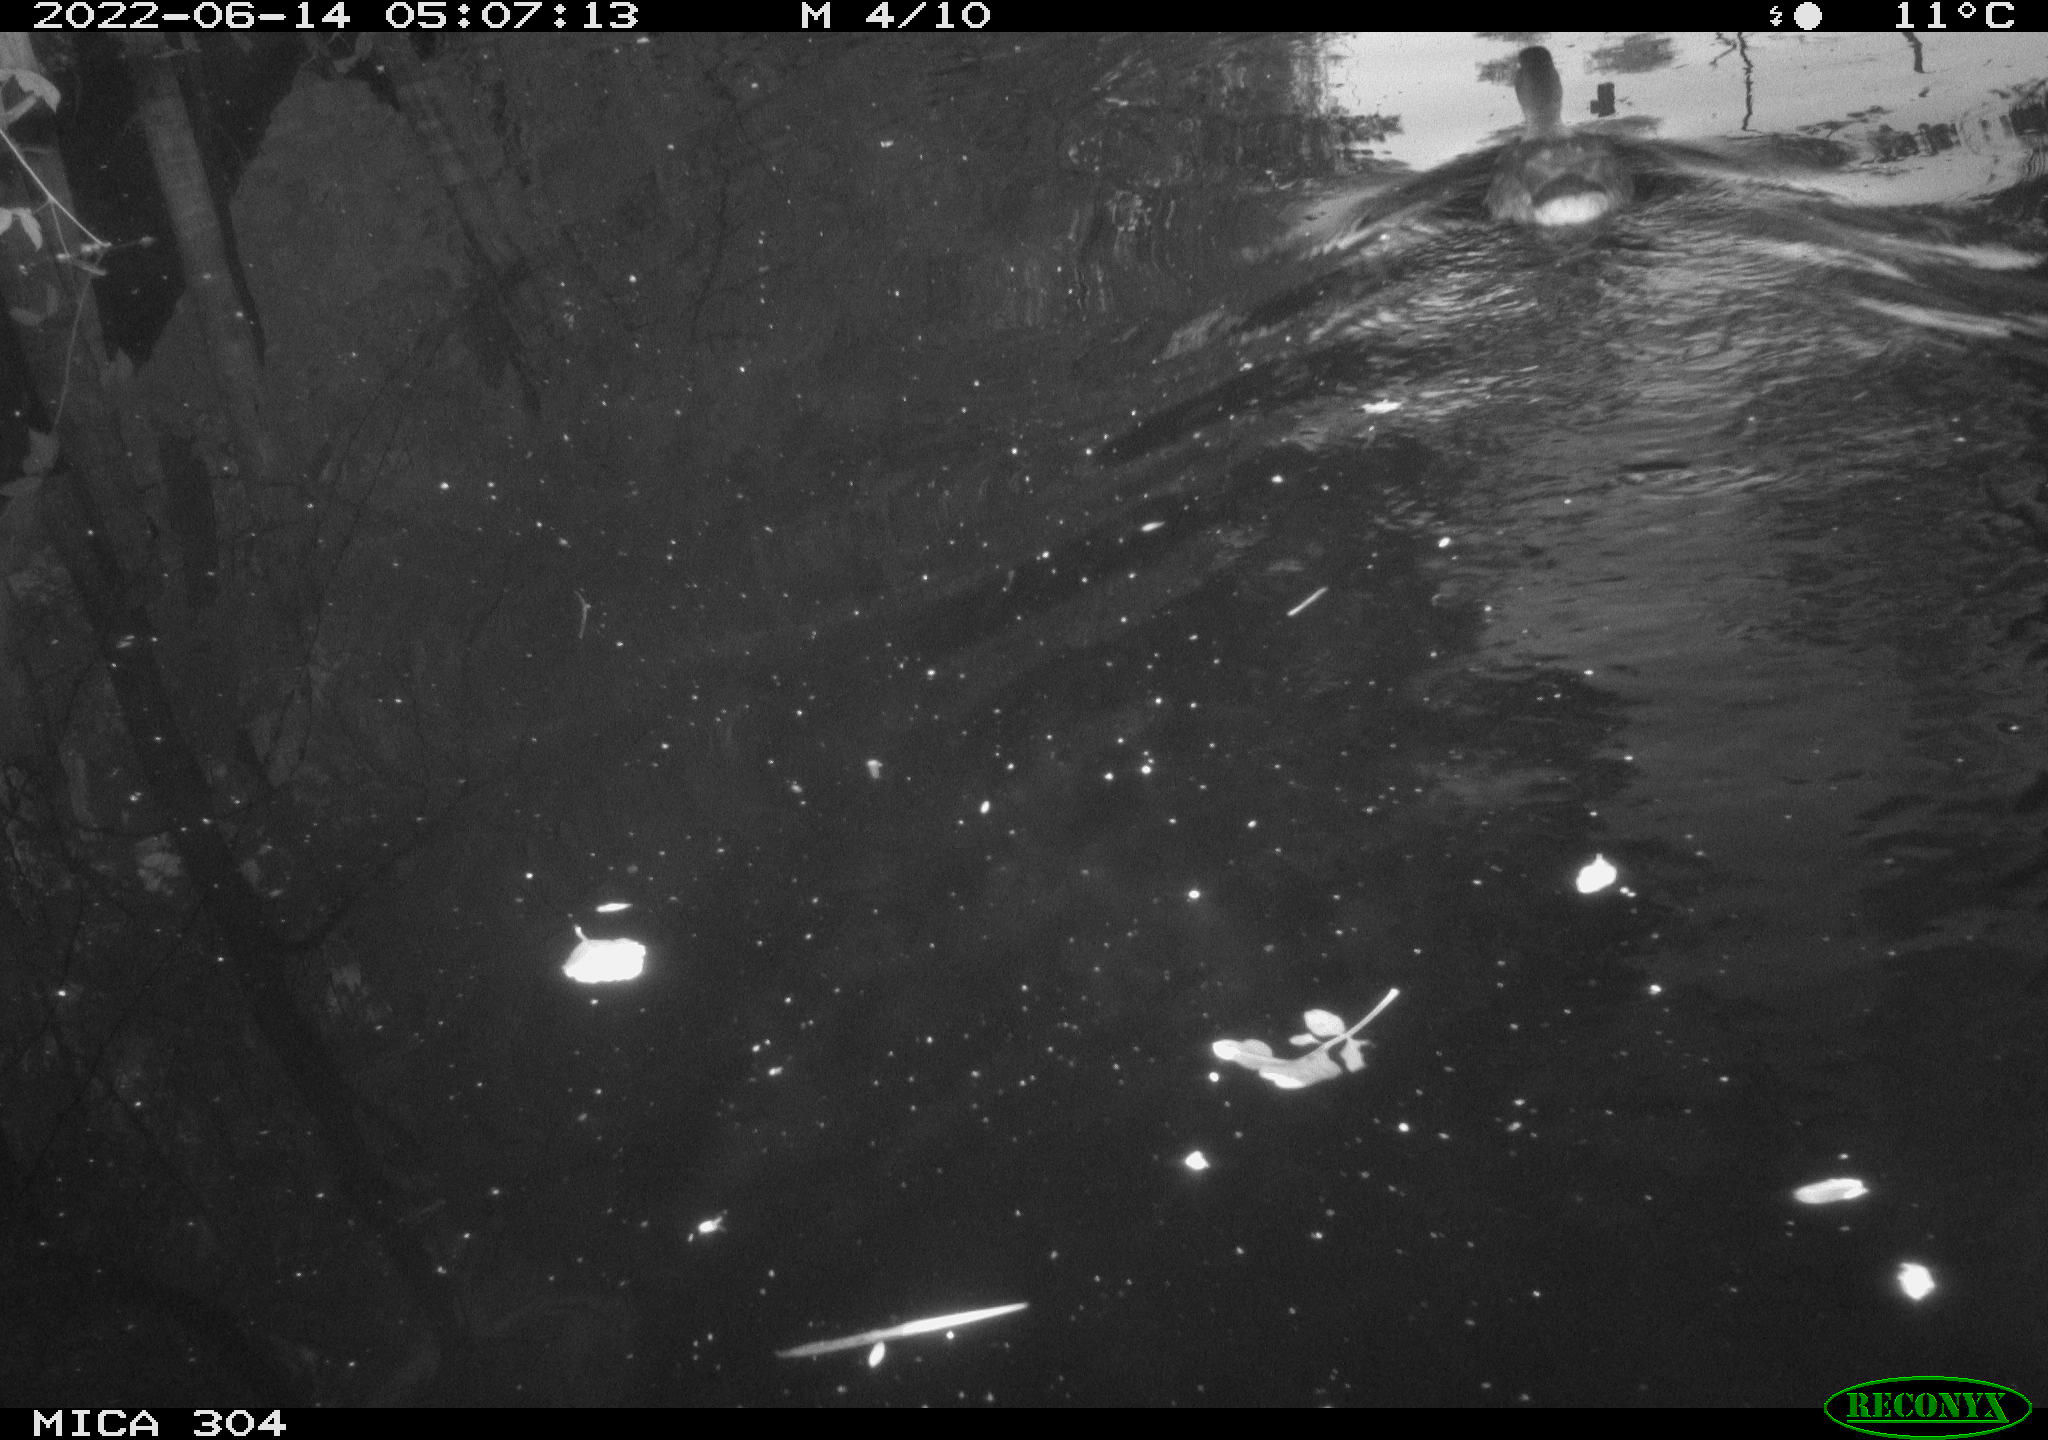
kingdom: Animalia
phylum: Chordata
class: Aves
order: Anseriformes
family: Anatidae
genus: Anas
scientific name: Anas platyrhynchos
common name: Mallard
